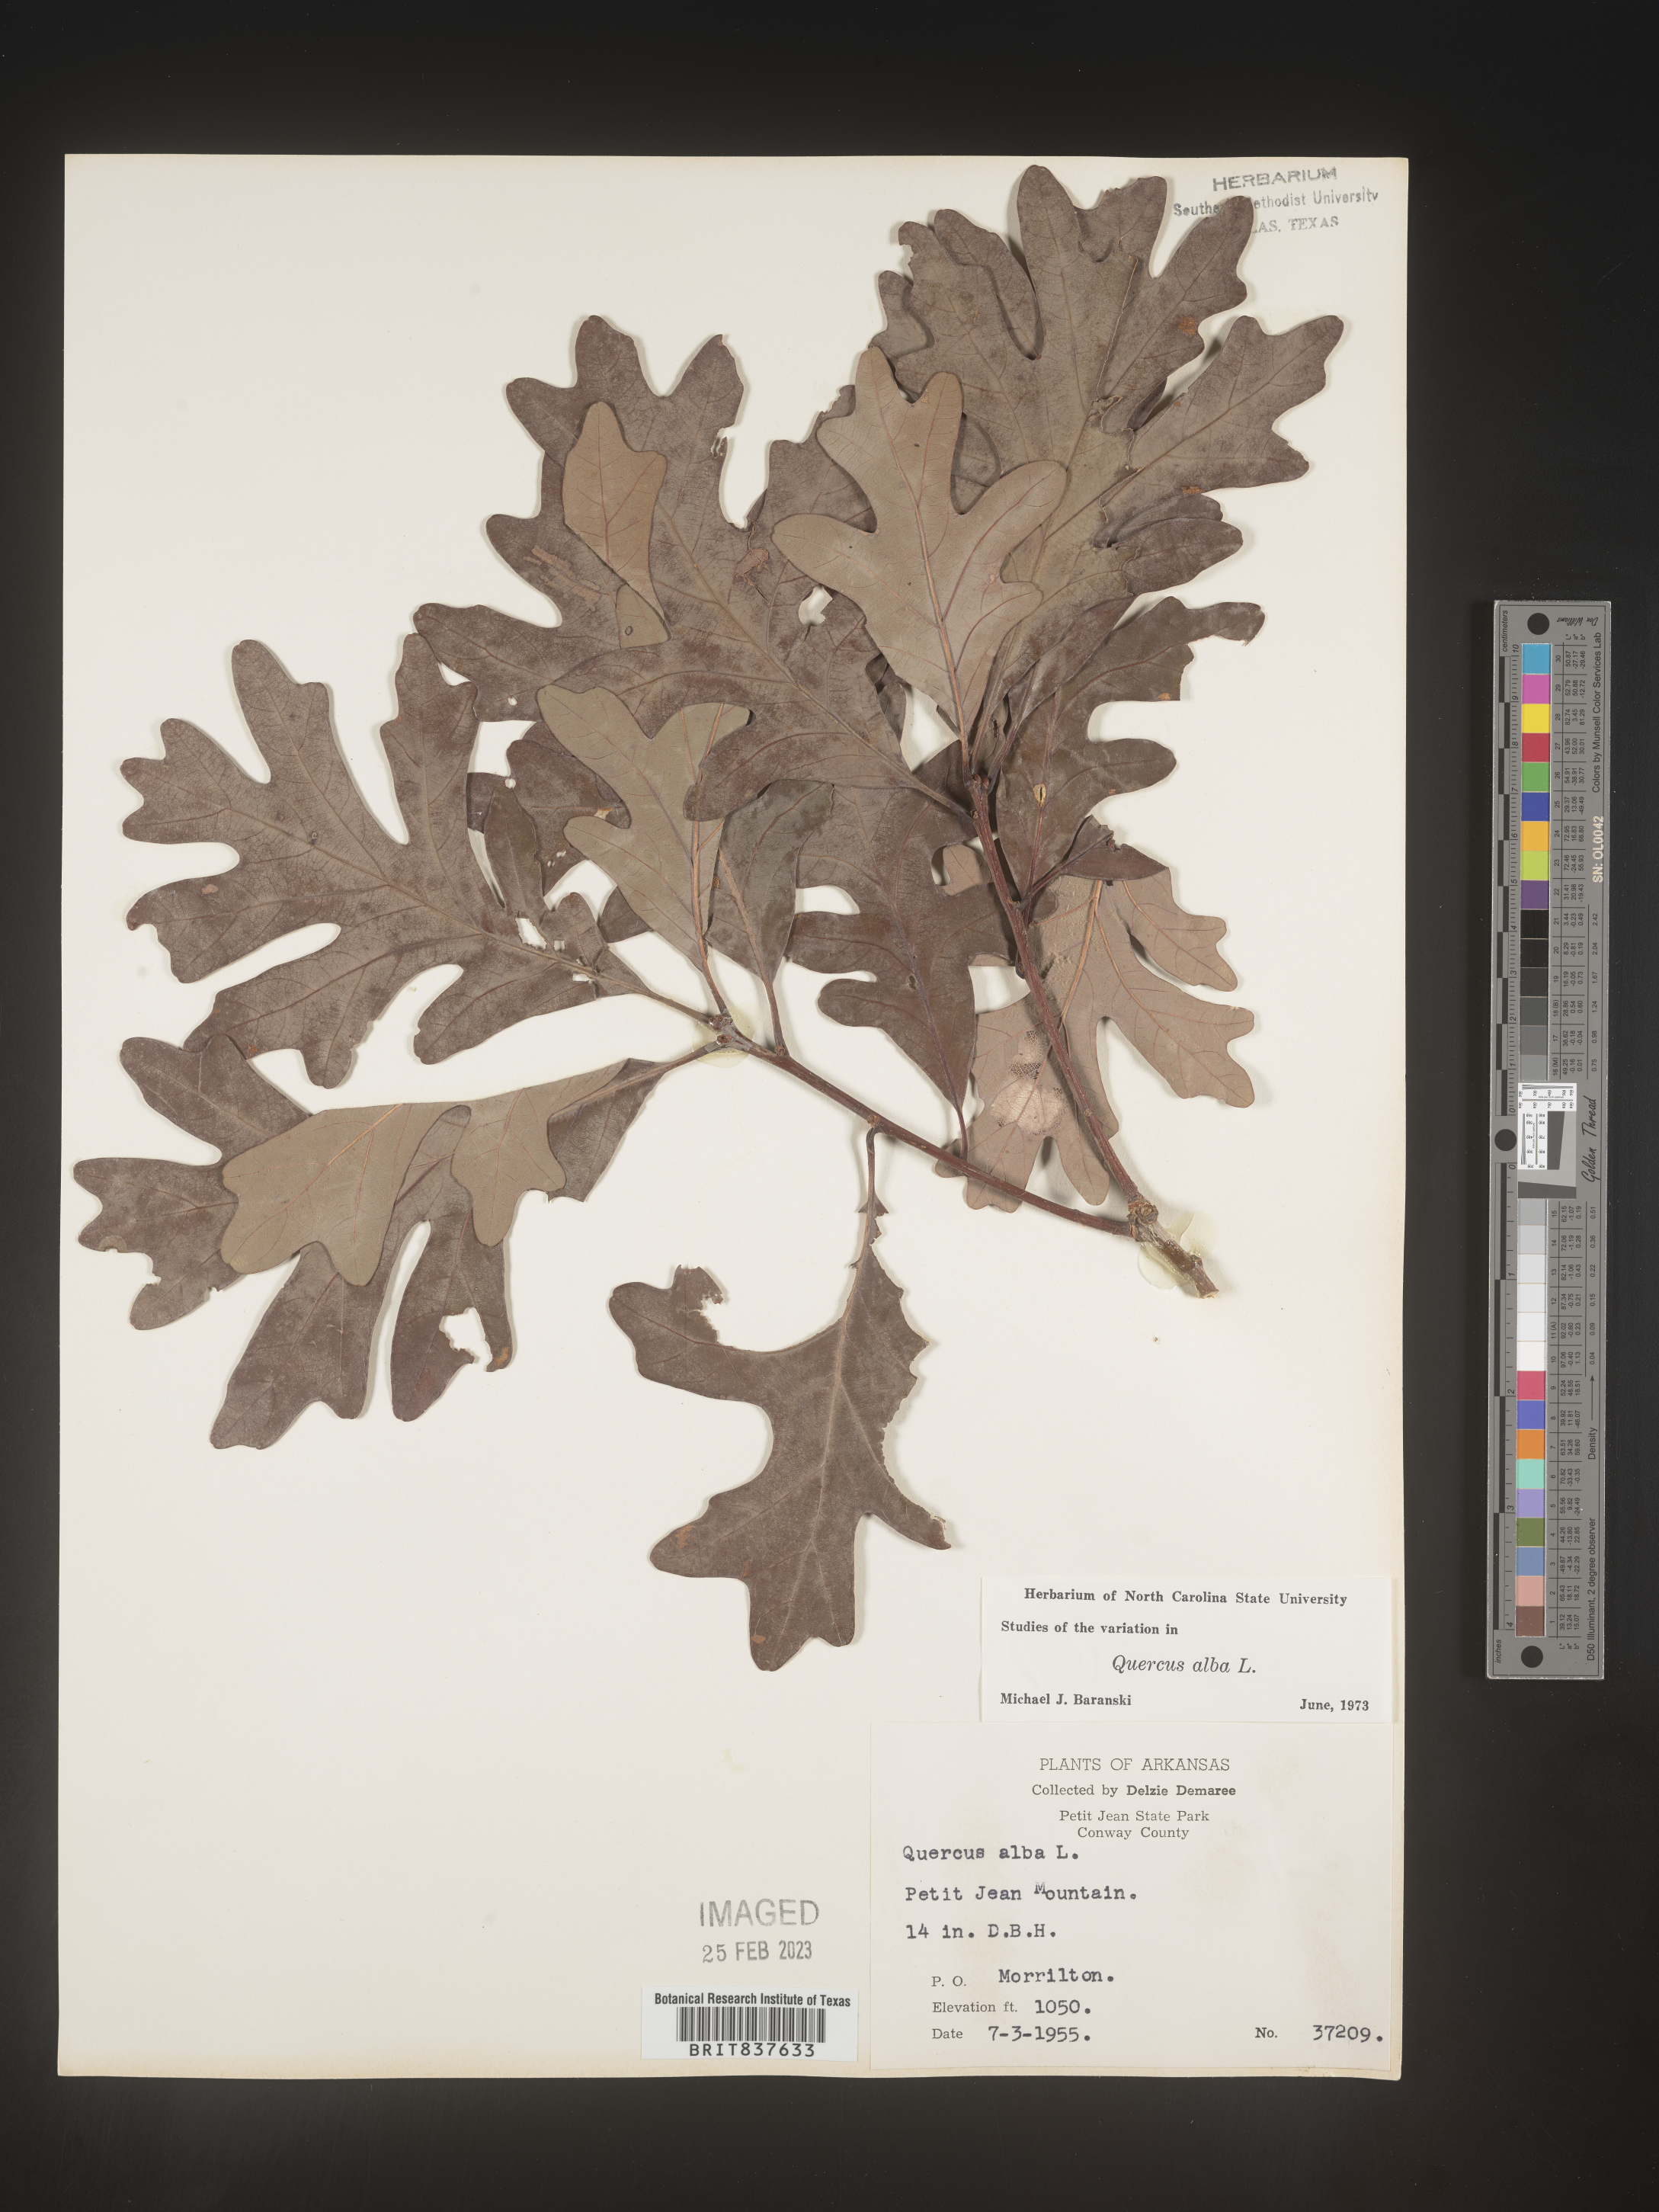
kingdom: Plantae
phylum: Tracheophyta
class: Magnoliopsida
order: Fagales
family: Fagaceae
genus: Quercus
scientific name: Quercus alba
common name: White oak
